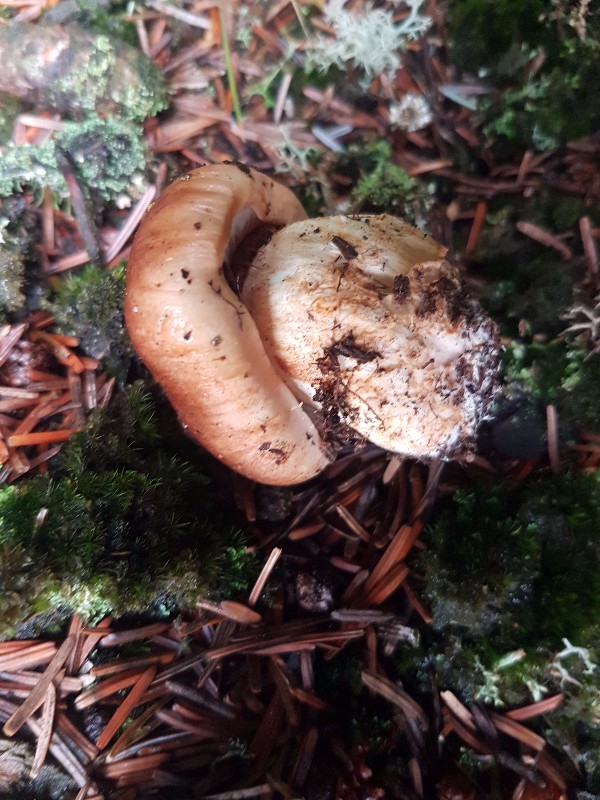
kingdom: Fungi
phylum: Basidiomycota
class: Agaricomycetes
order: Agaricales
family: Tricholomataceae
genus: Tricholoma
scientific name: Tricholoma stans
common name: stolt ridderhat
